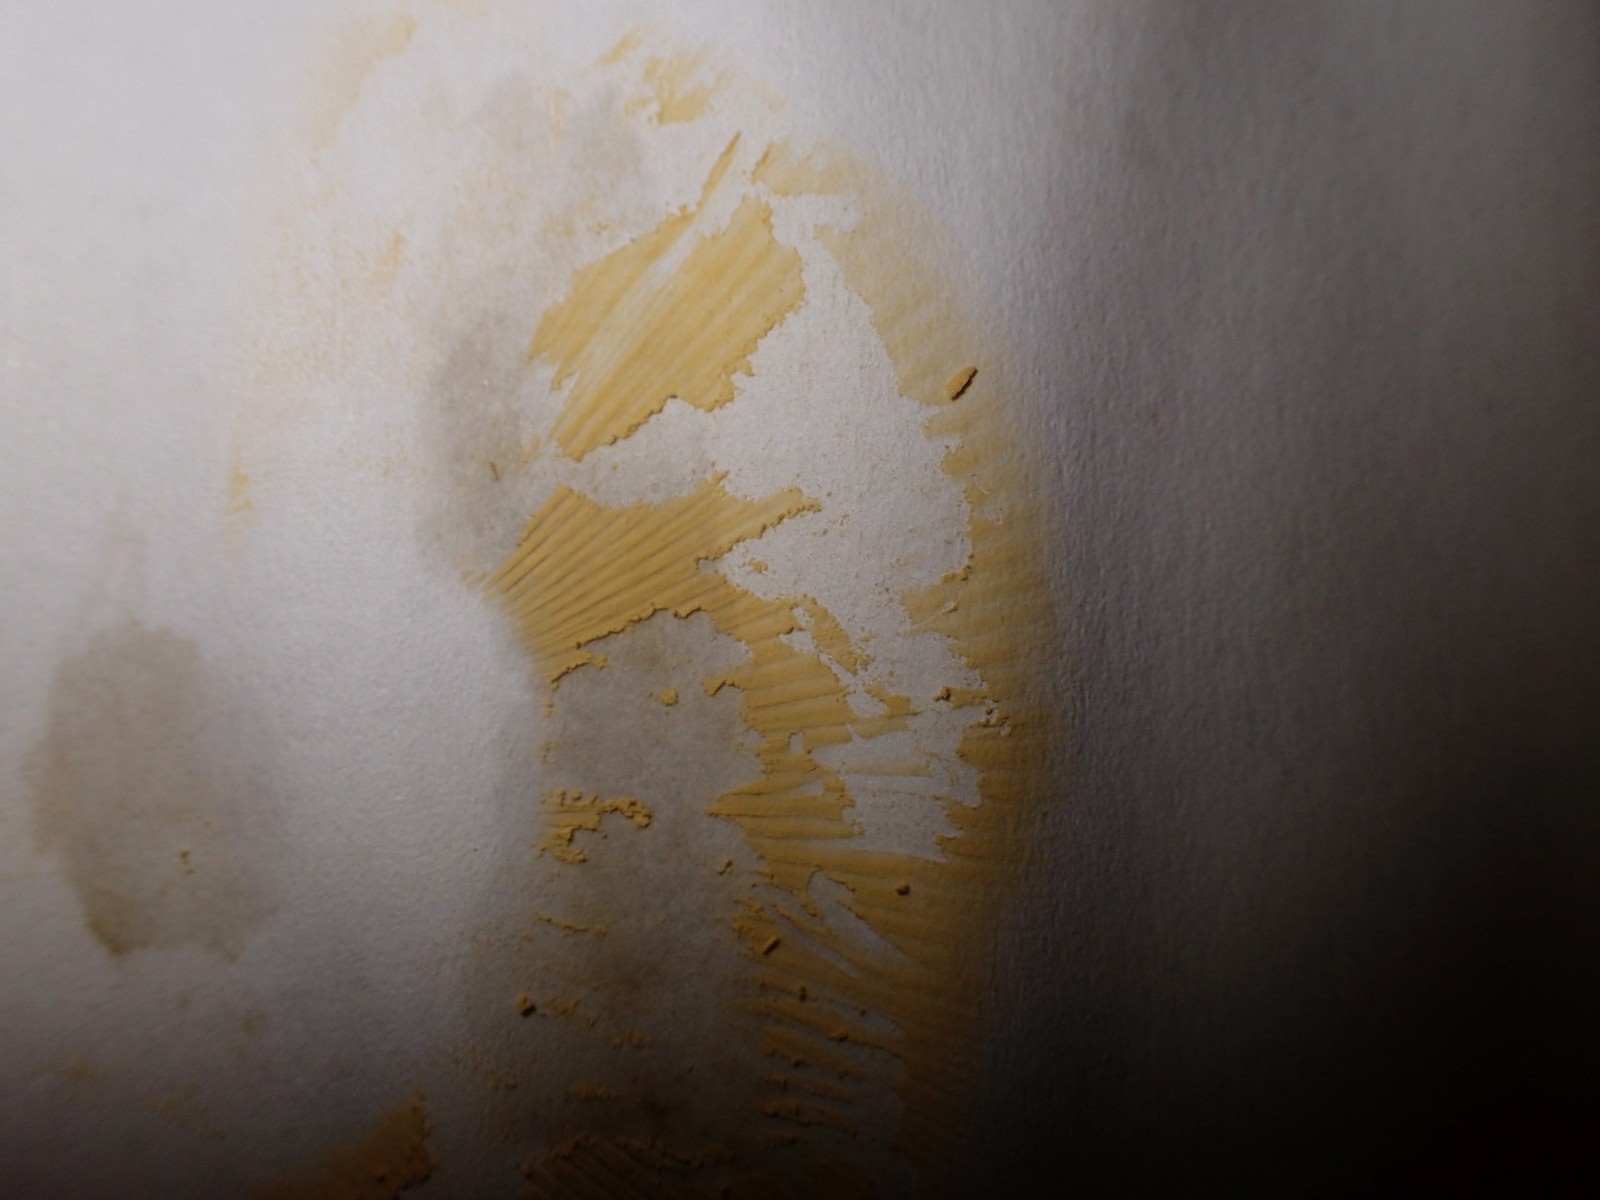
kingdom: Fungi
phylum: Basidiomycota
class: Agaricomycetes
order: Russulales
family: Russulaceae
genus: Russula
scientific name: Russula
